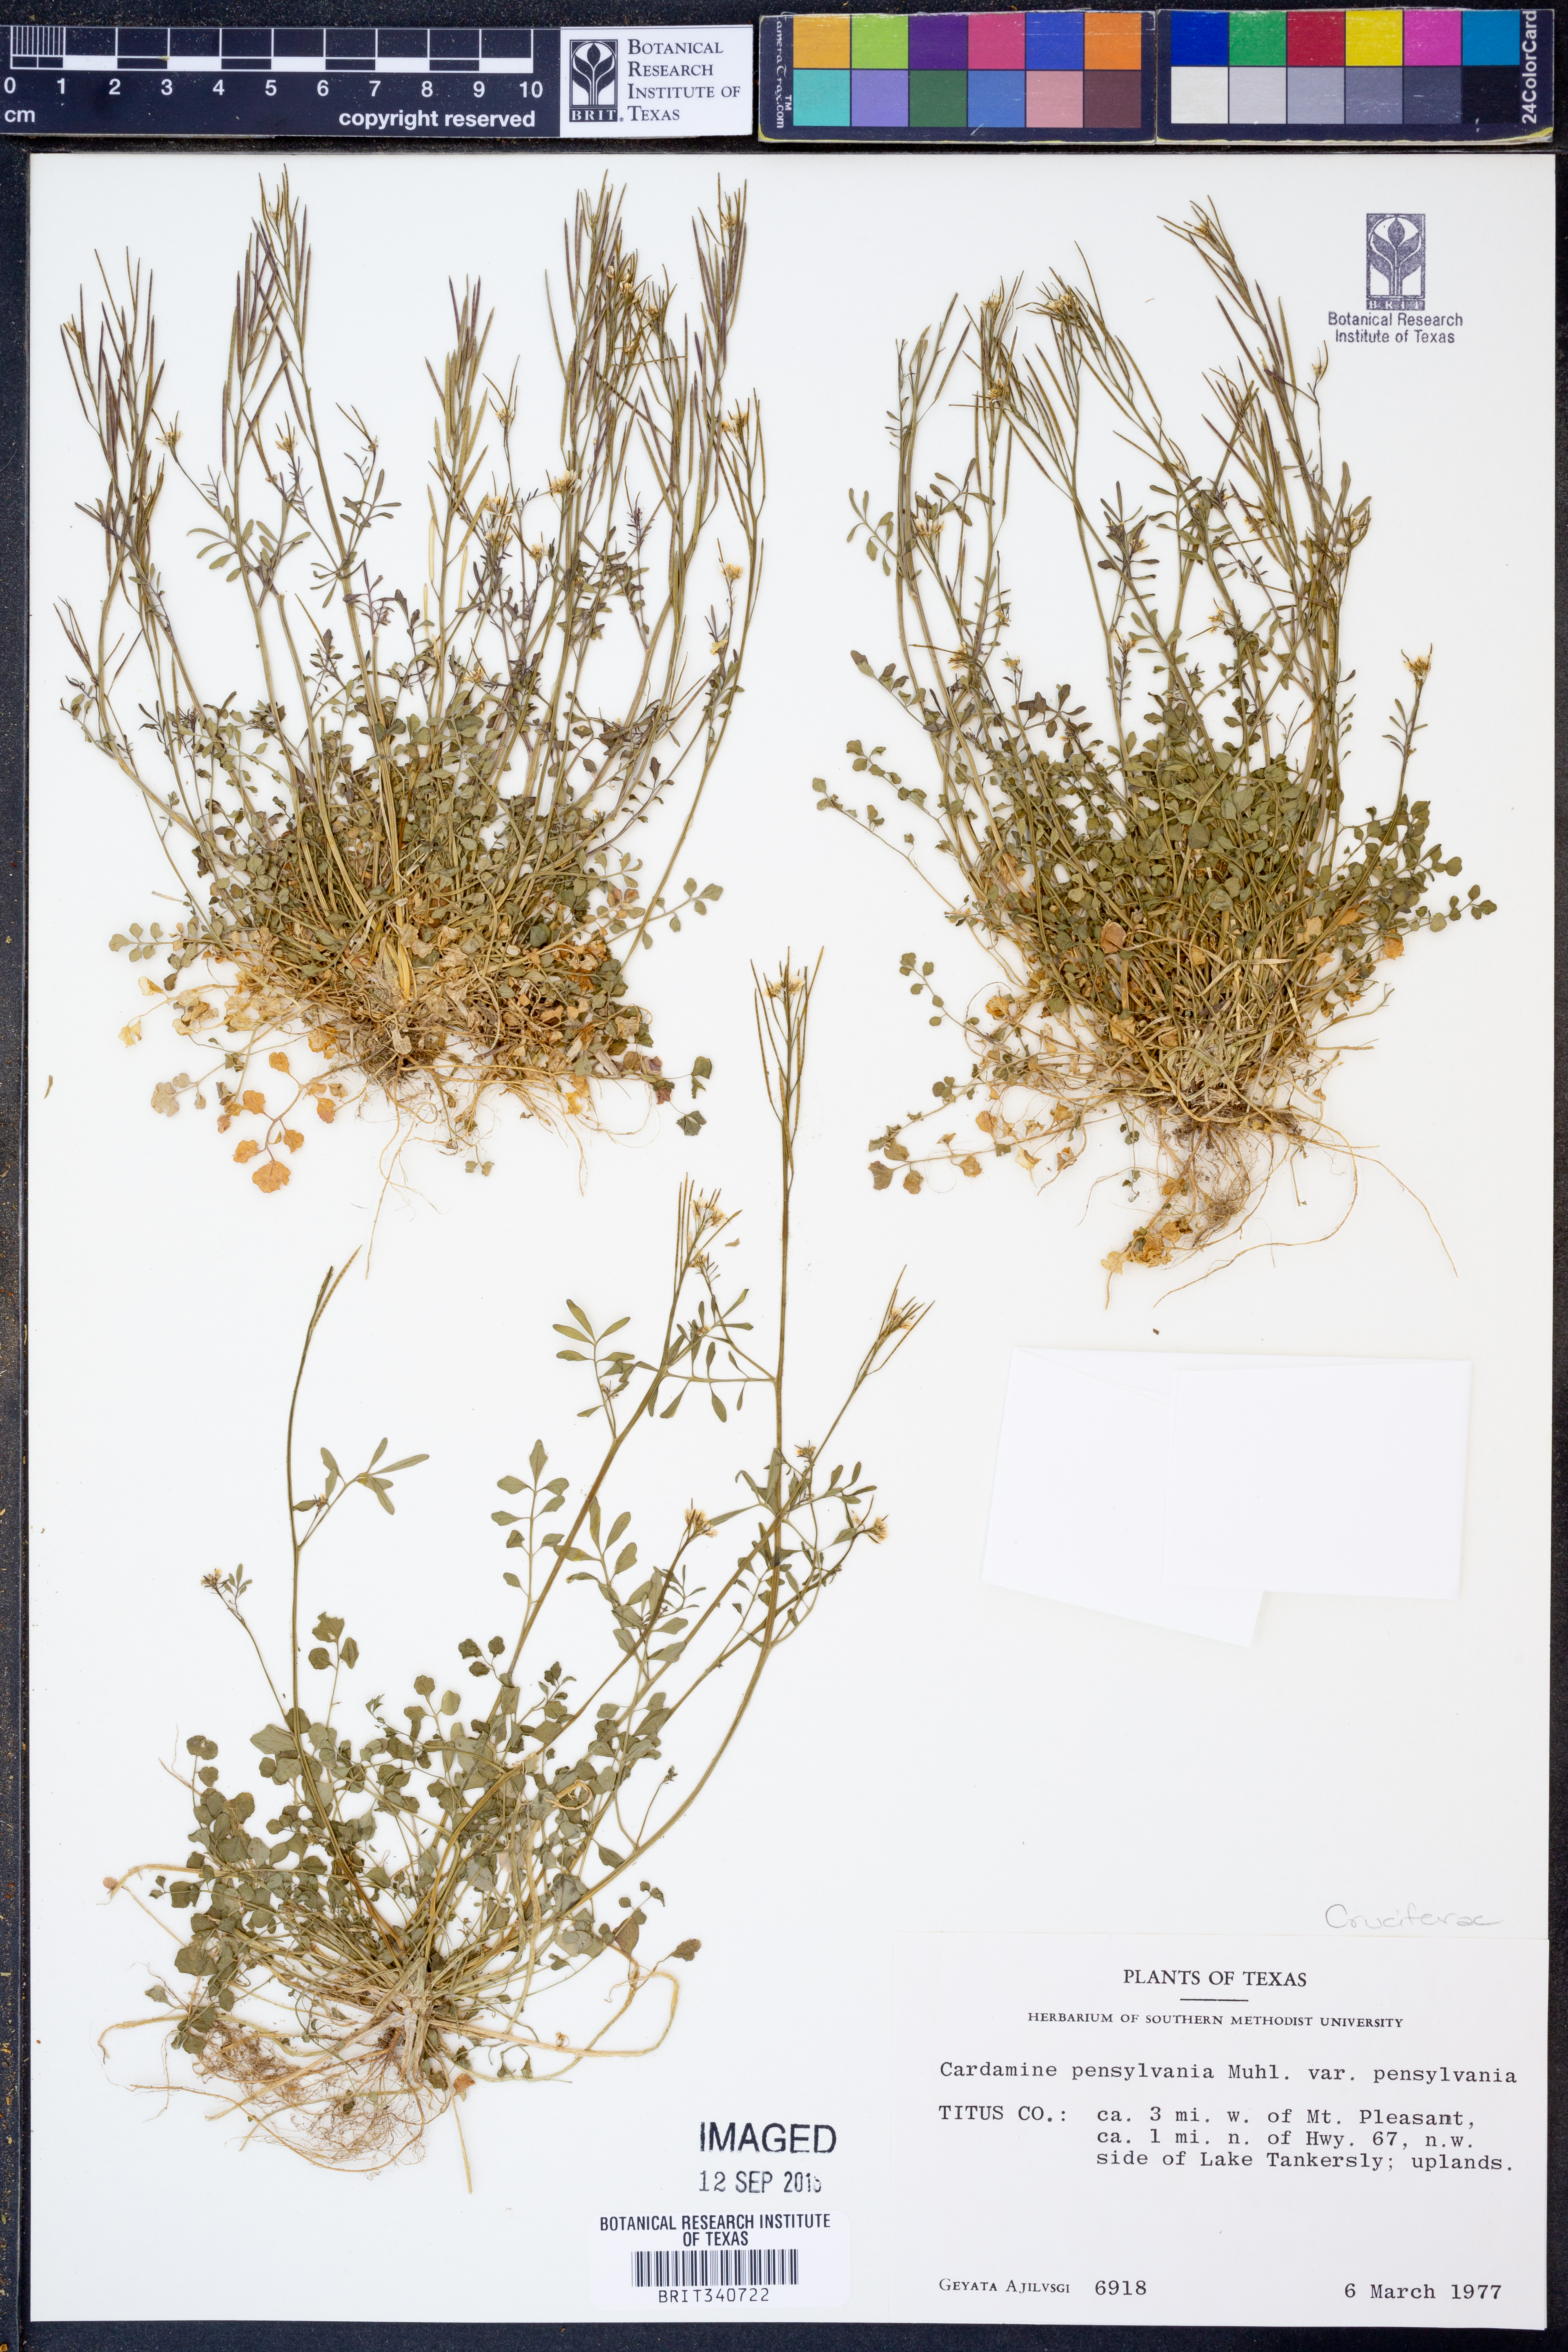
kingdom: Plantae
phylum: Tracheophyta
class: Magnoliopsida
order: Brassicales
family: Brassicaceae
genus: Cardamine
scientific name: Cardamine pensylvanica
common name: Pennsylvania bittercress
